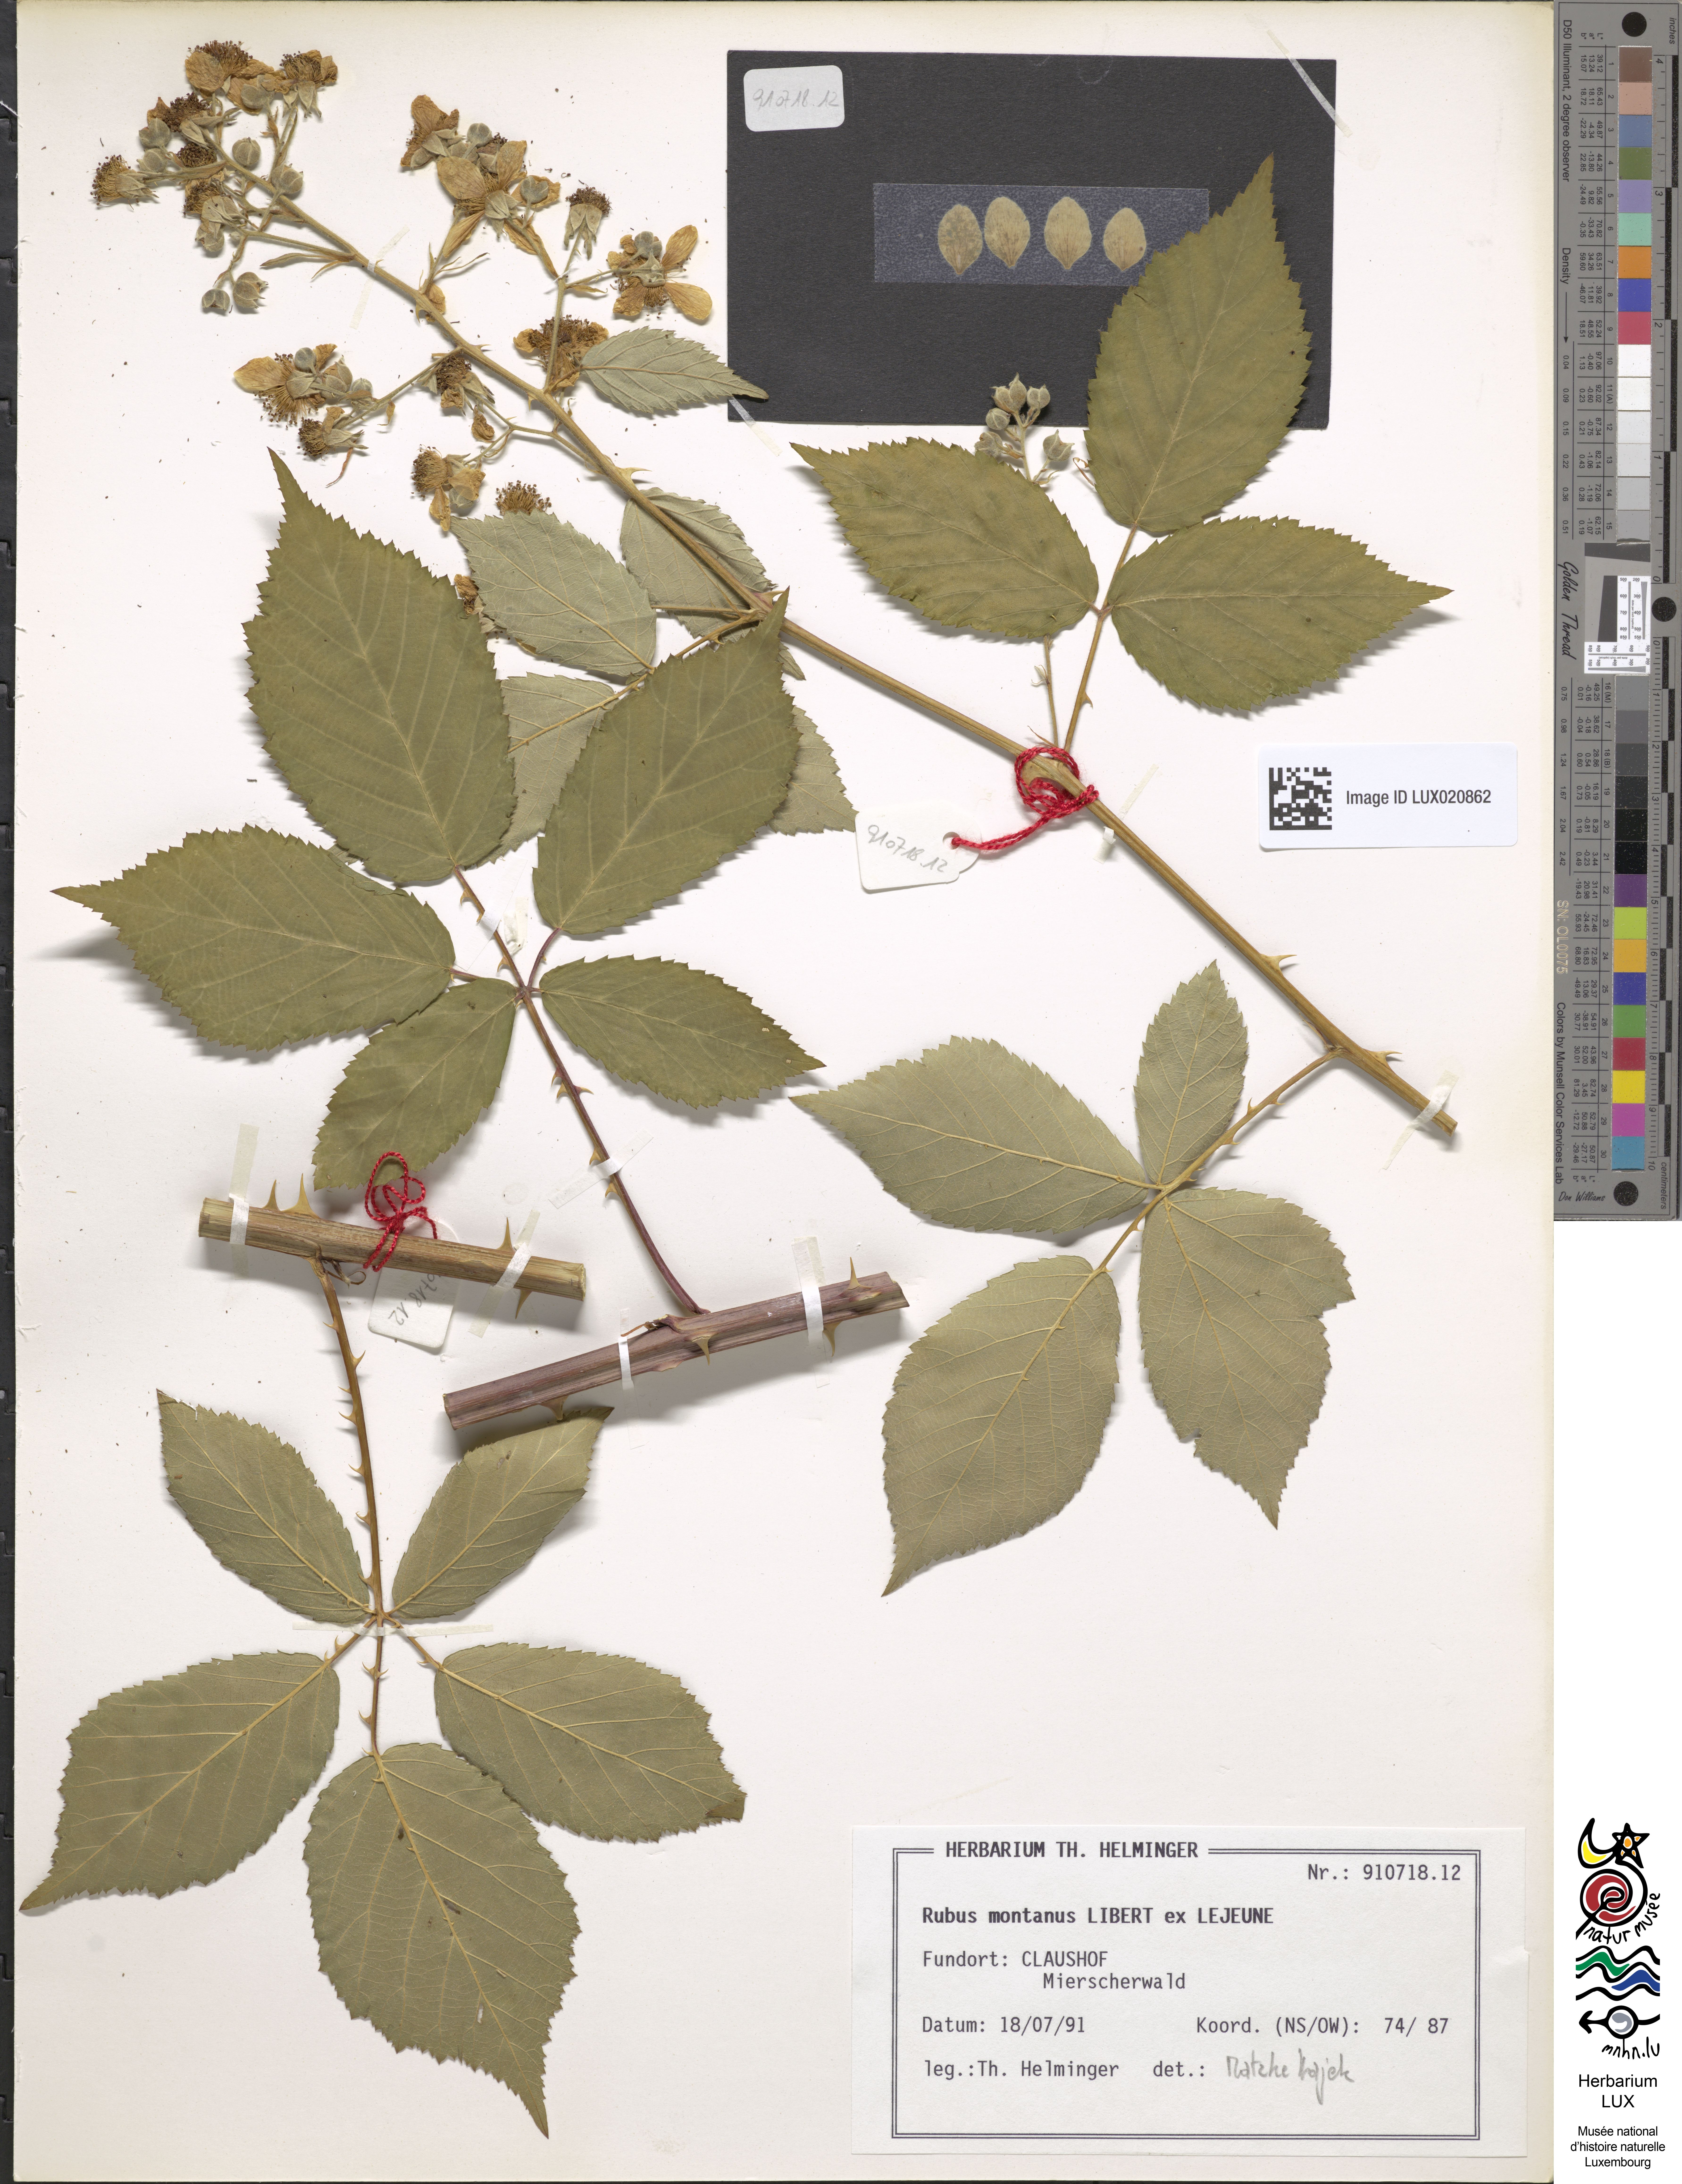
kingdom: Plantae
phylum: Tracheophyta
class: Magnoliopsida
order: Rosales
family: Rosaceae
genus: Rubus
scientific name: Rubus montanus
